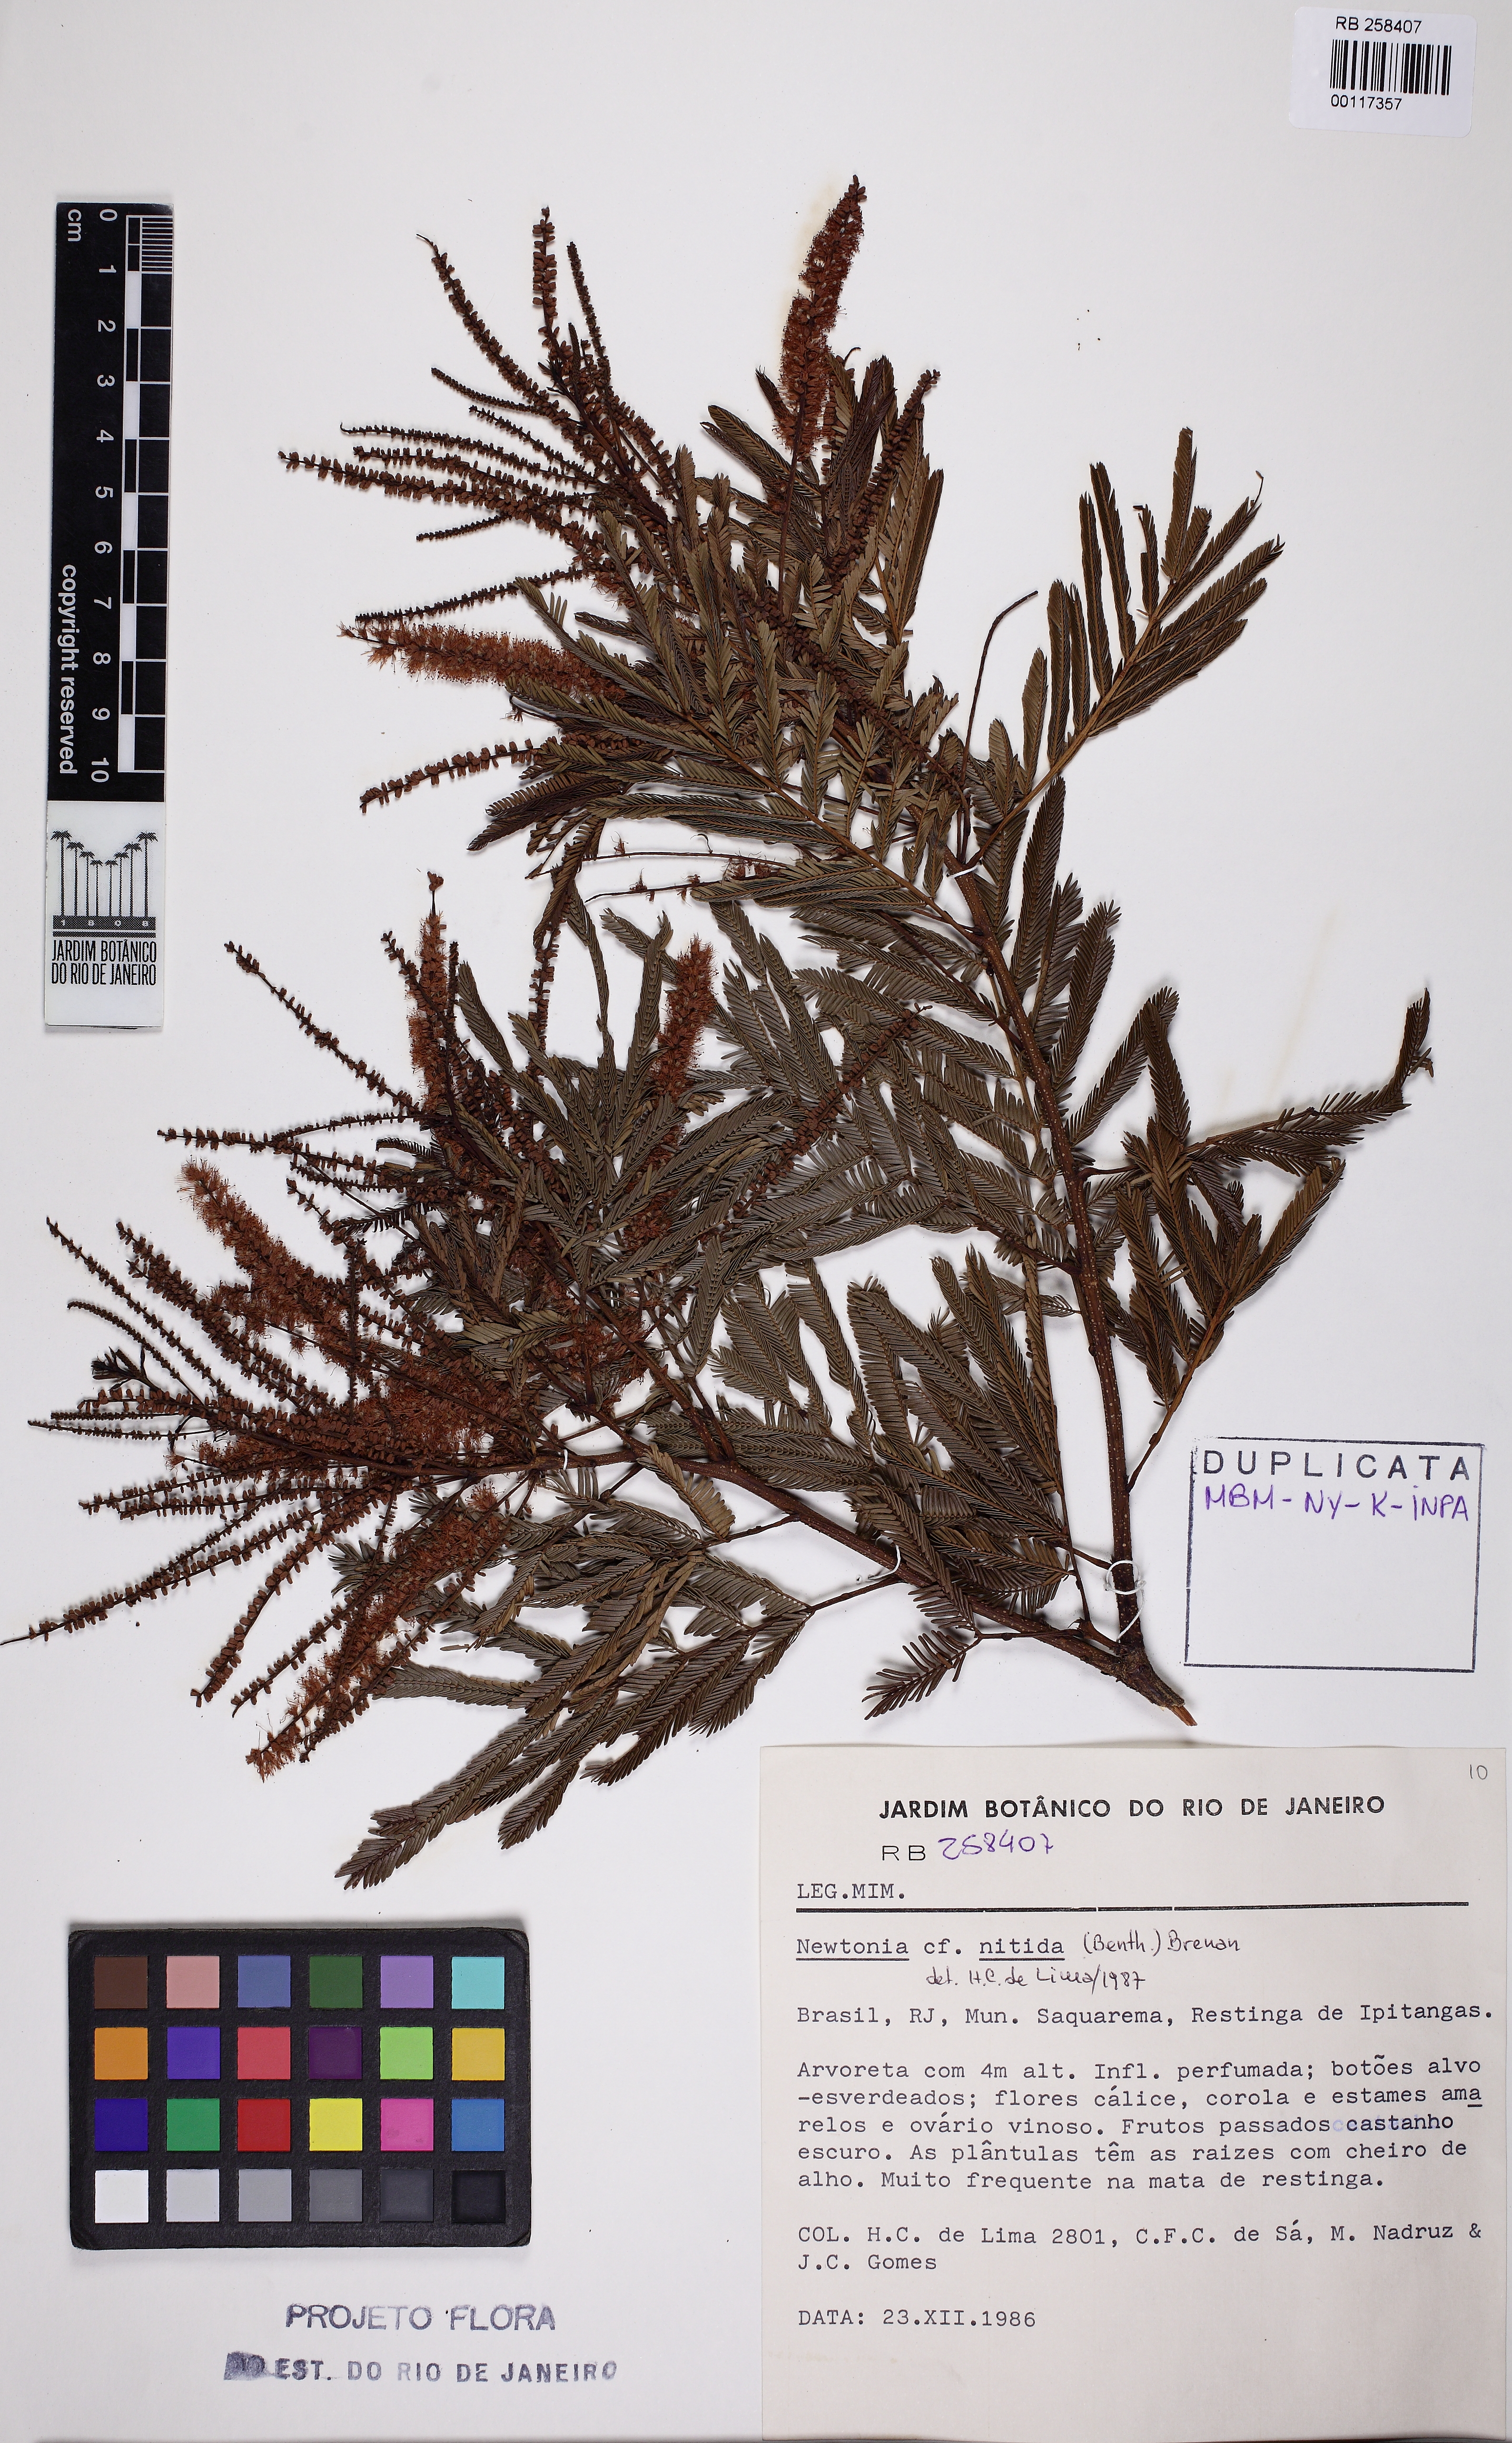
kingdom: Plantae
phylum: Tracheophyta
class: Magnoliopsida
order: Fabales
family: Fabaceae
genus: Pseudopiptadenia
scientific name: Pseudopiptadenia contorta
